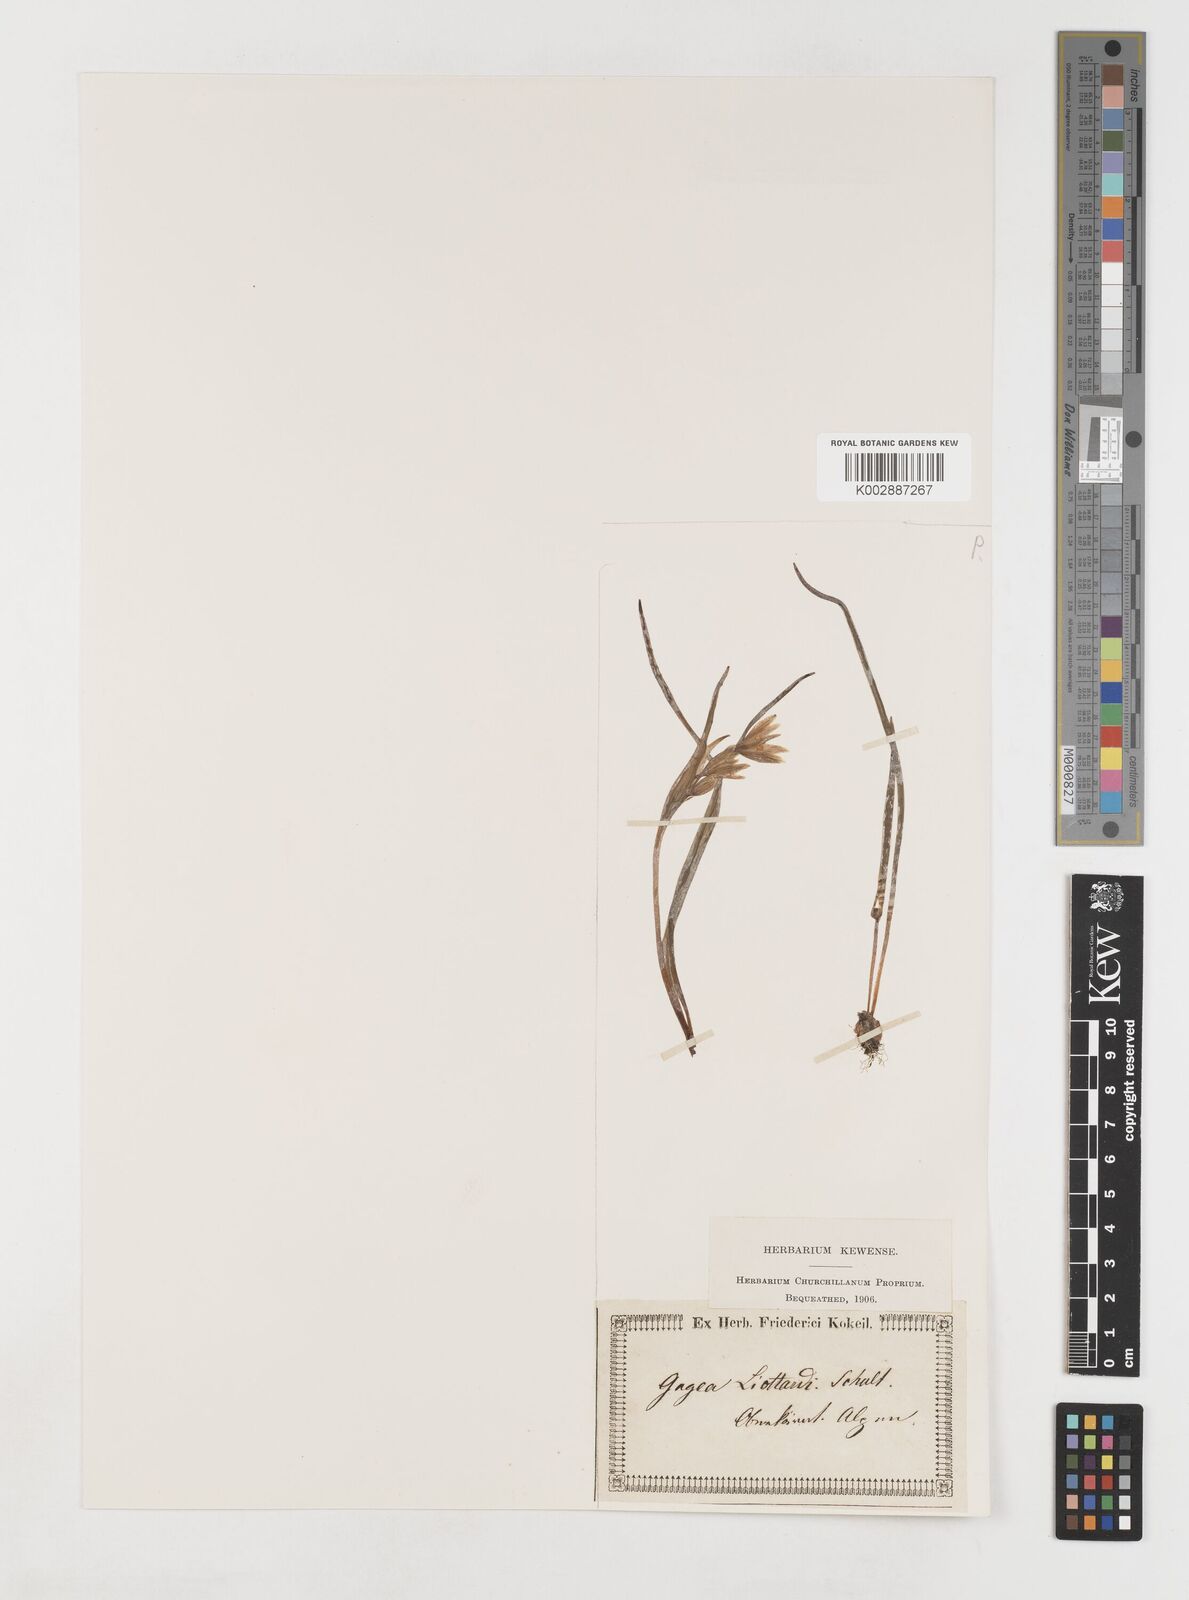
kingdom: Plantae
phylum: Tracheophyta
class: Liliopsida
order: Liliales
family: Liliaceae
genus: Gagea
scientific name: Gagea bohemica
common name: Early star-of-bethlehem
